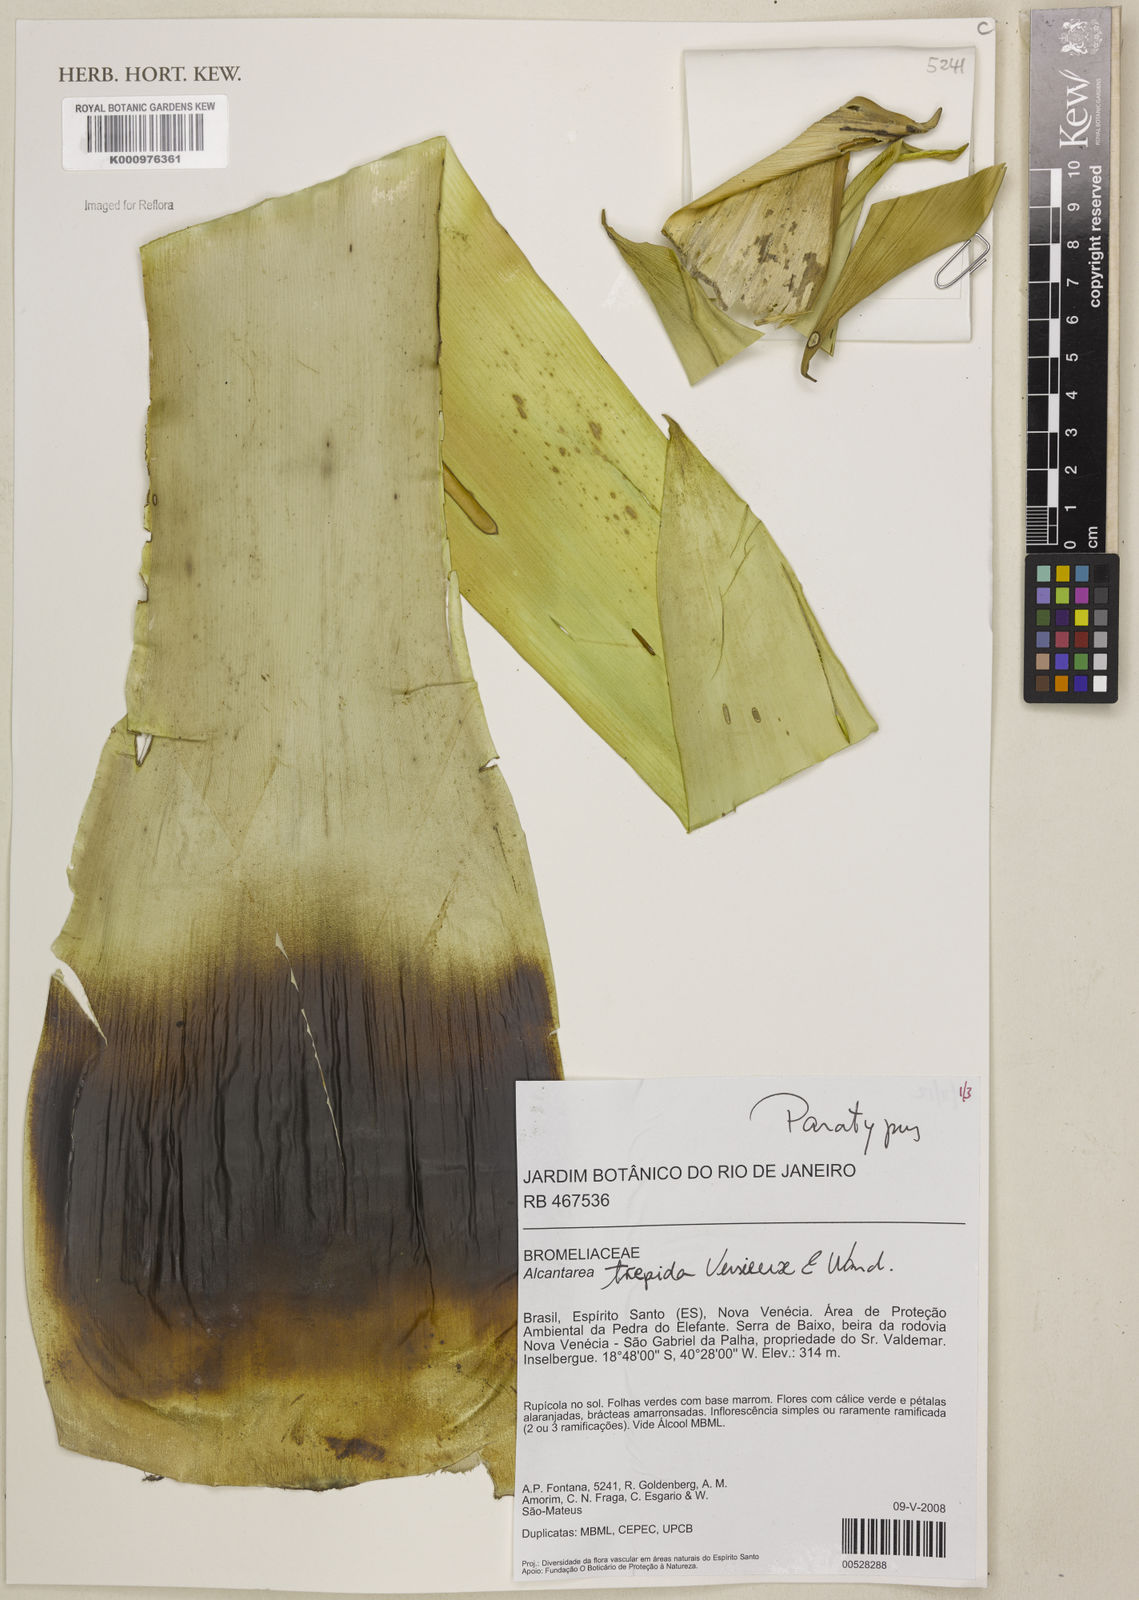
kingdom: Plantae
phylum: Tracheophyta
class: Liliopsida
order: Poales
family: Bromeliaceae
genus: Vriesea
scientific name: Vriesea
